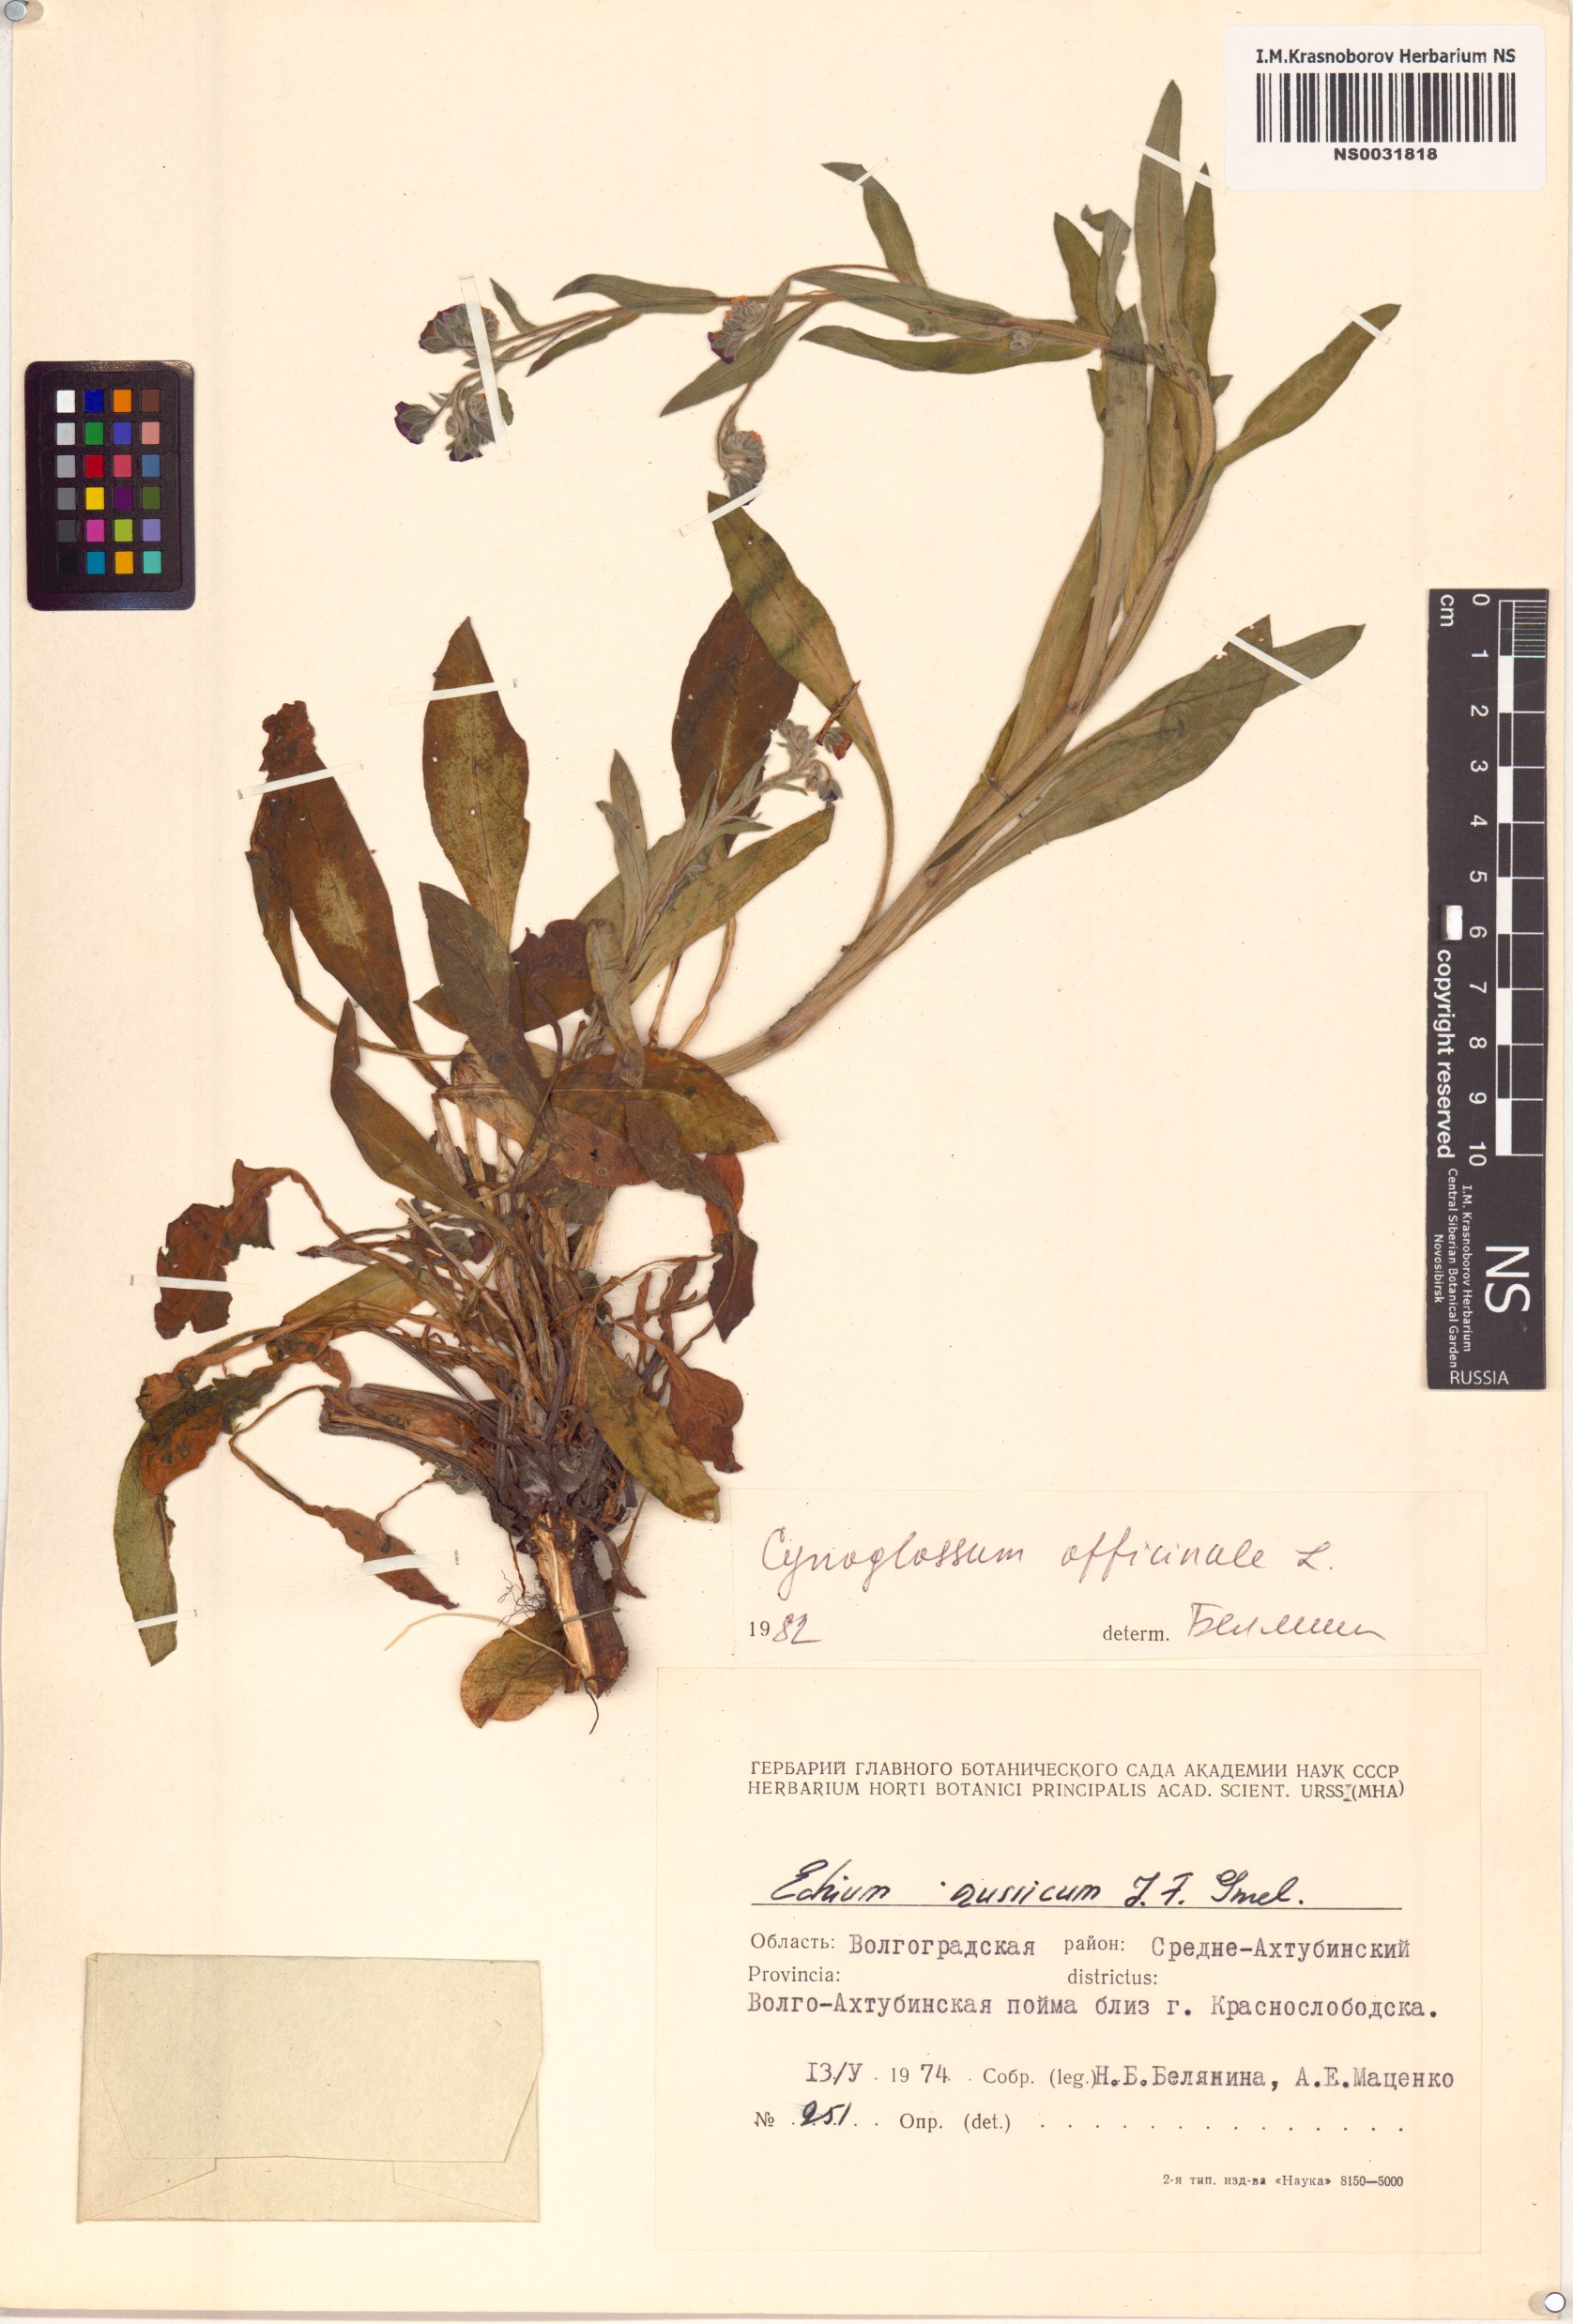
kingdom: Plantae
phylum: Tracheophyta
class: Magnoliopsida
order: Boraginales
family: Boraginaceae
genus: Cynoglossum
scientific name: Cynoglossum officinale
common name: Hound's-tongue
